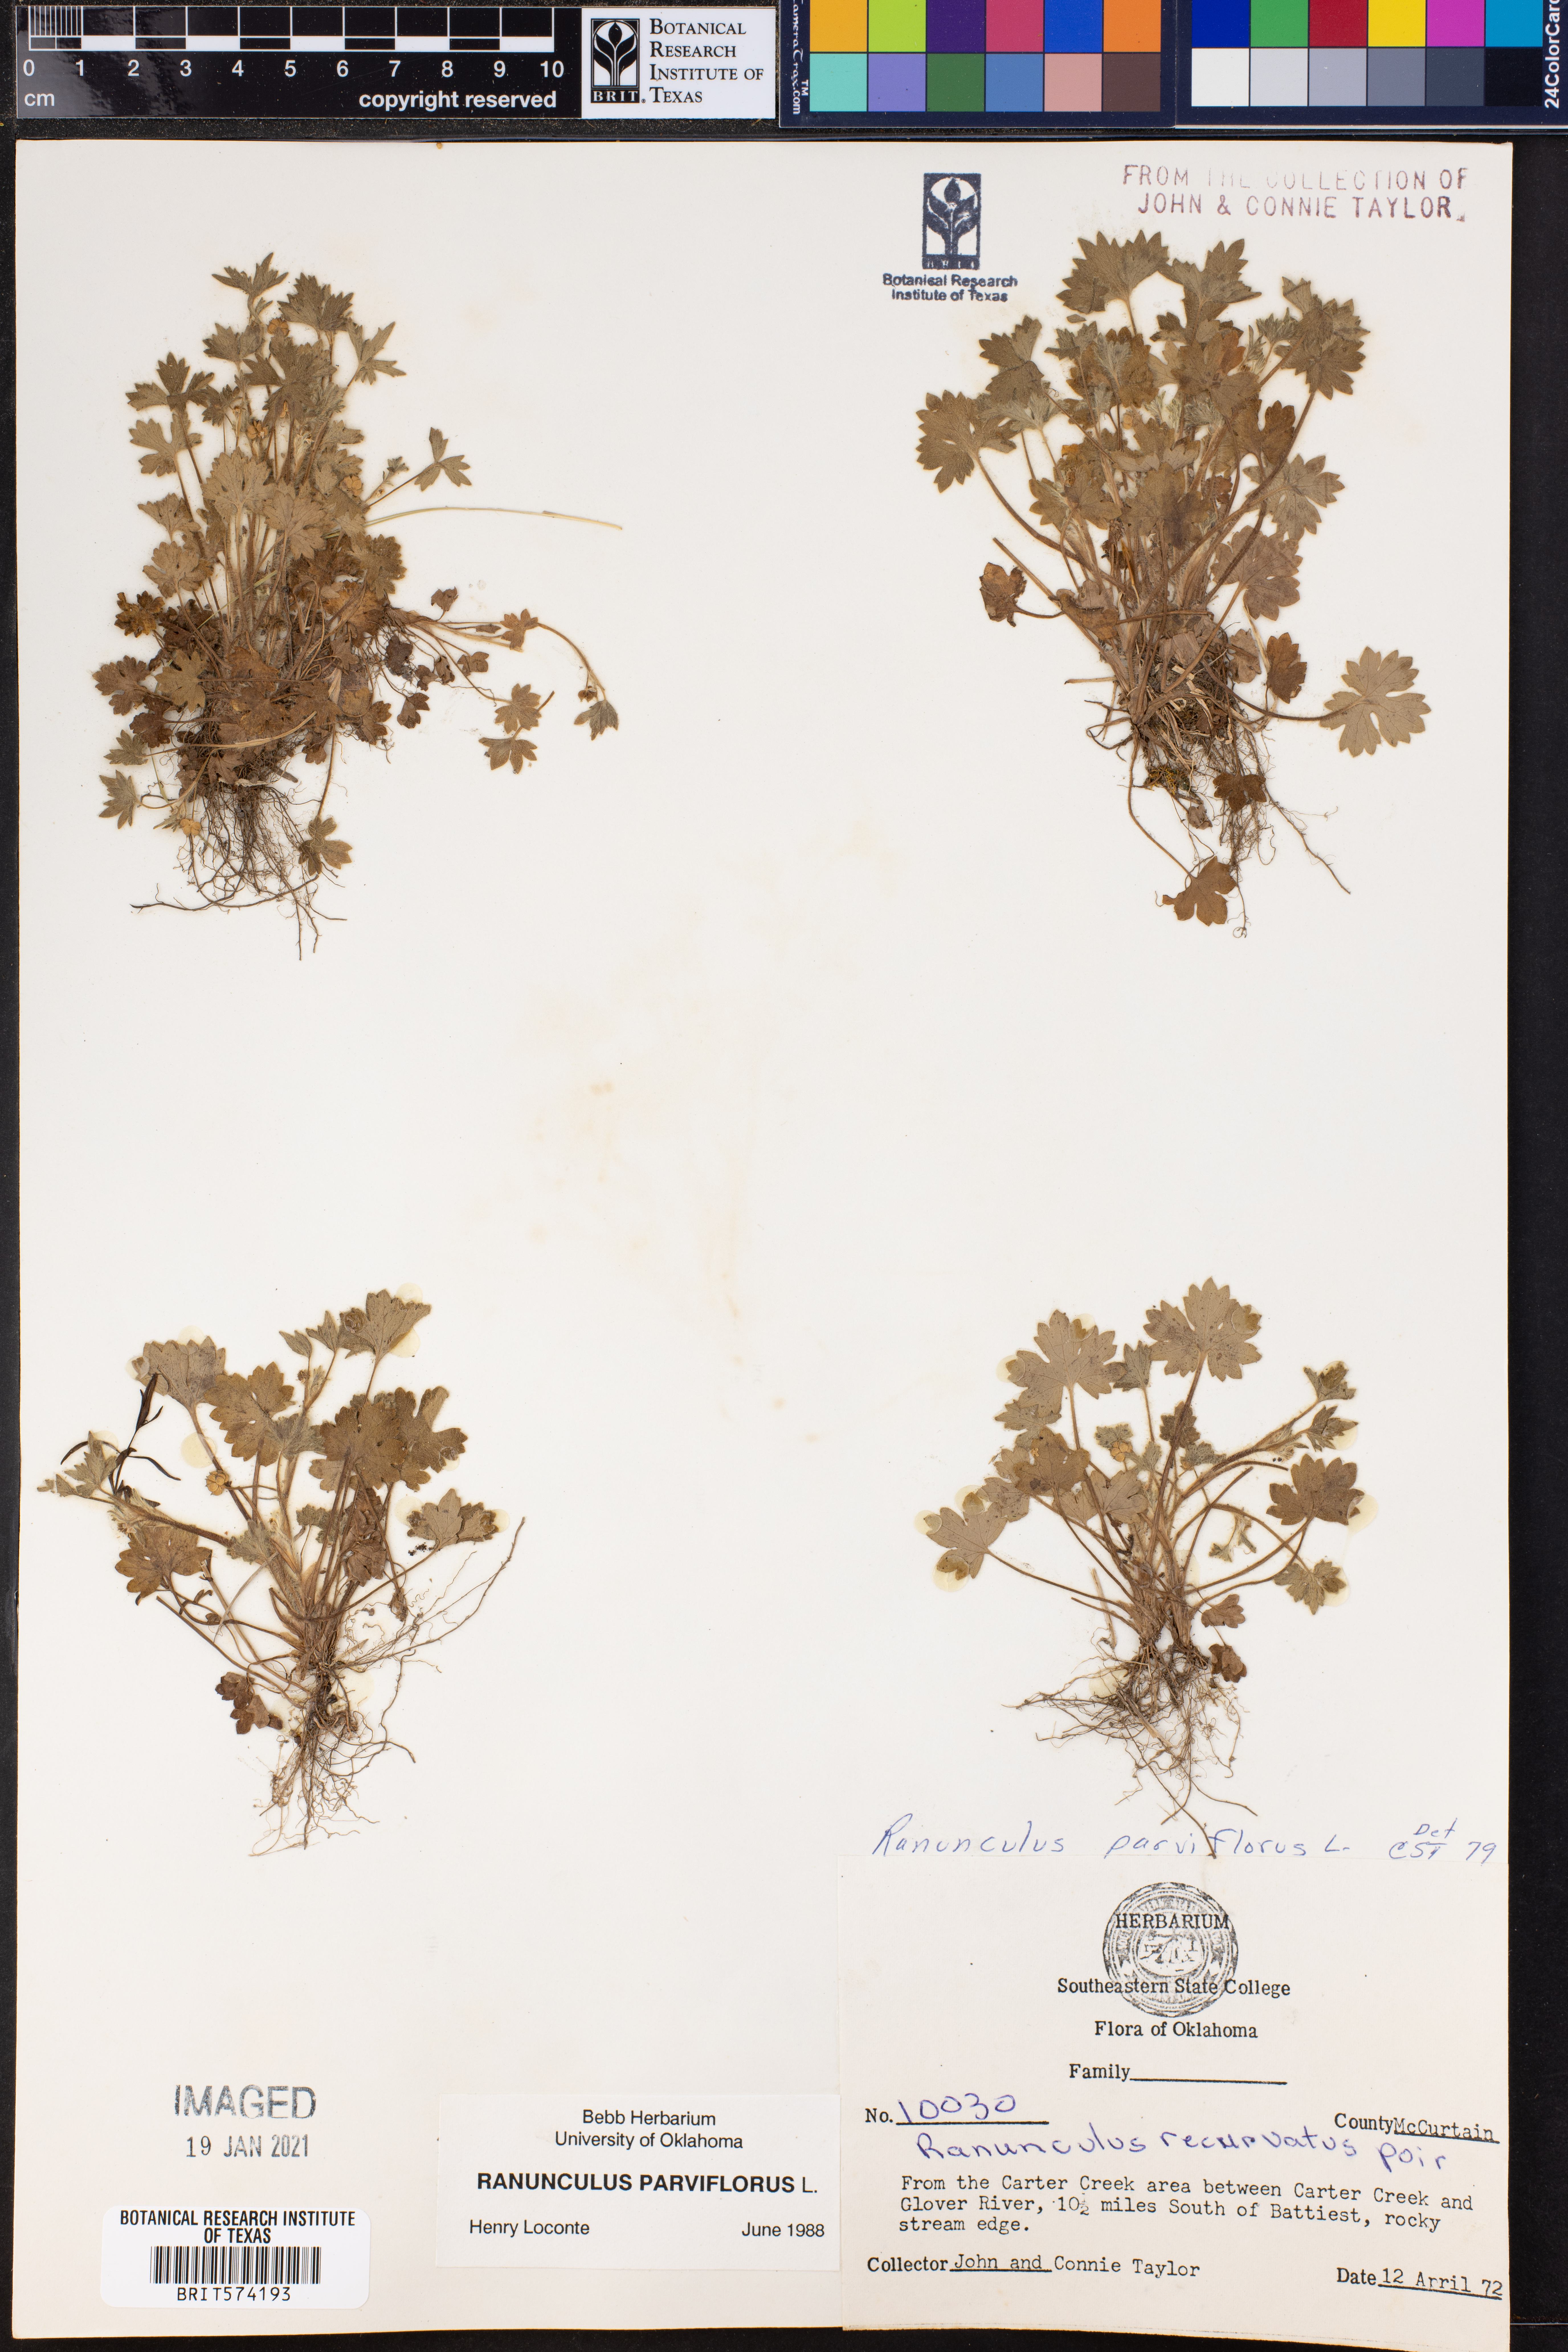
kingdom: Plantae
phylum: Tracheophyta
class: Magnoliopsida
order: Ranunculales
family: Ranunculaceae
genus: Ranunculus
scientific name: Ranunculus parviflorus
